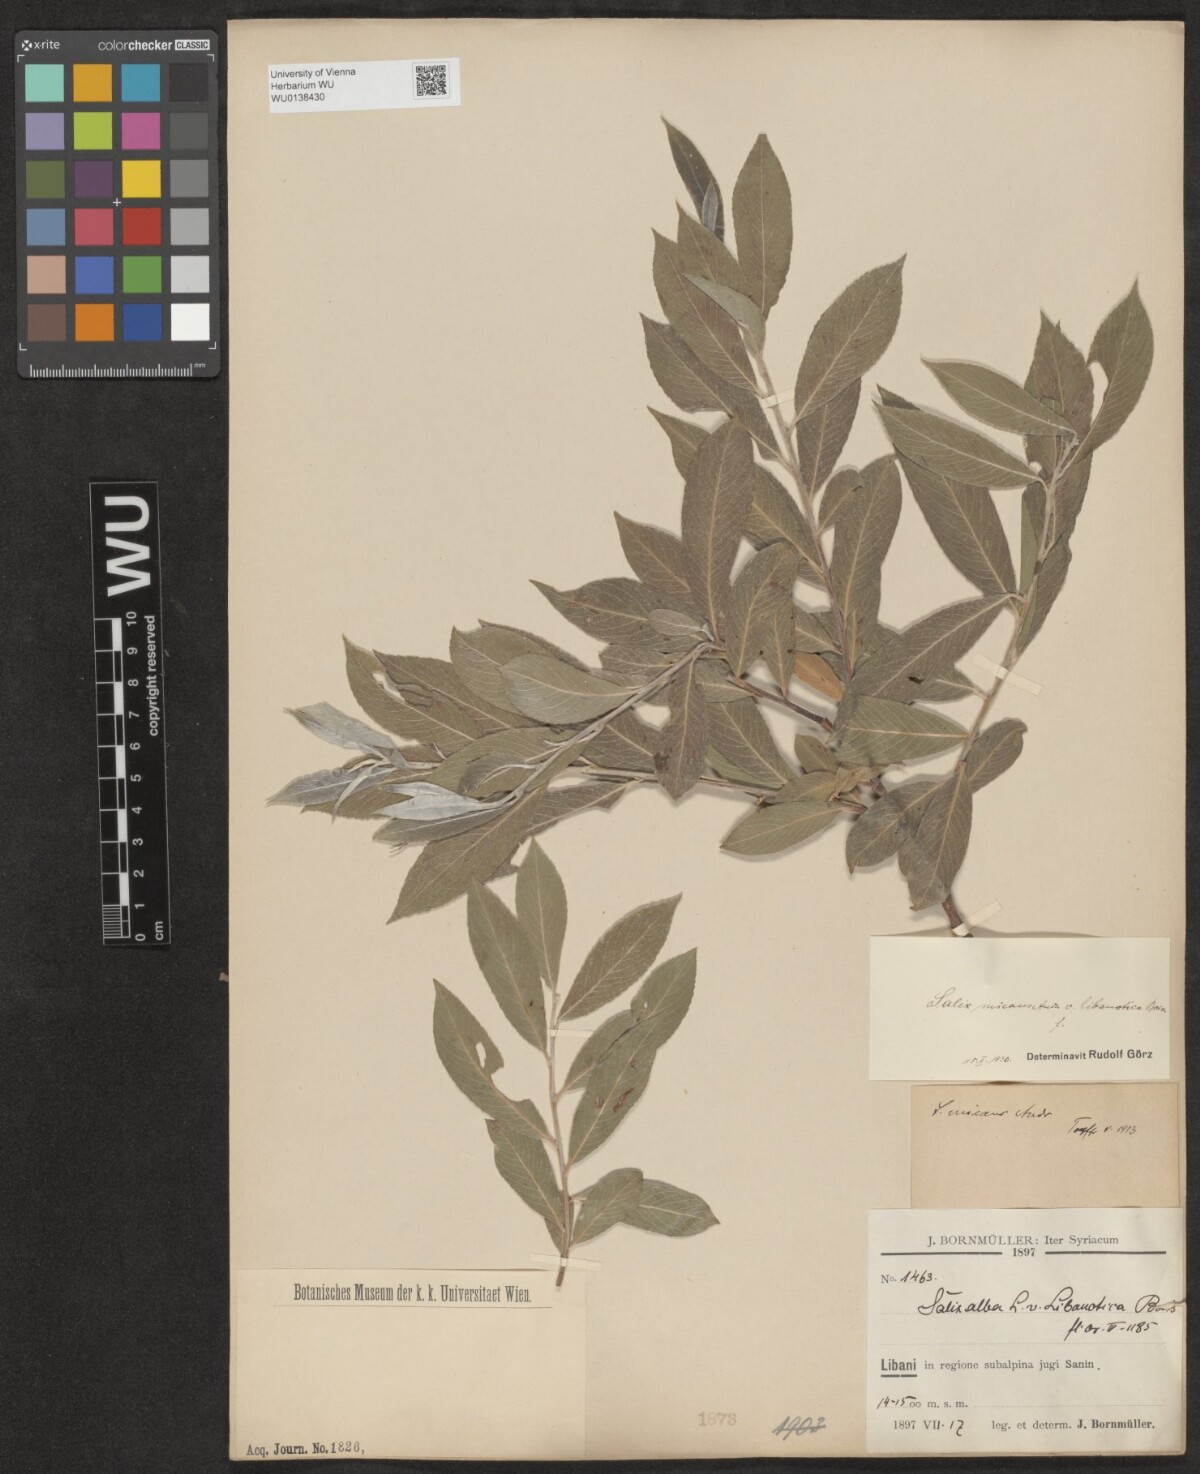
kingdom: Plantae
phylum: Tracheophyta
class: Magnoliopsida
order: Malpighiales
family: Salicaceae
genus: Salix
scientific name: Salix alba
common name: White willow
